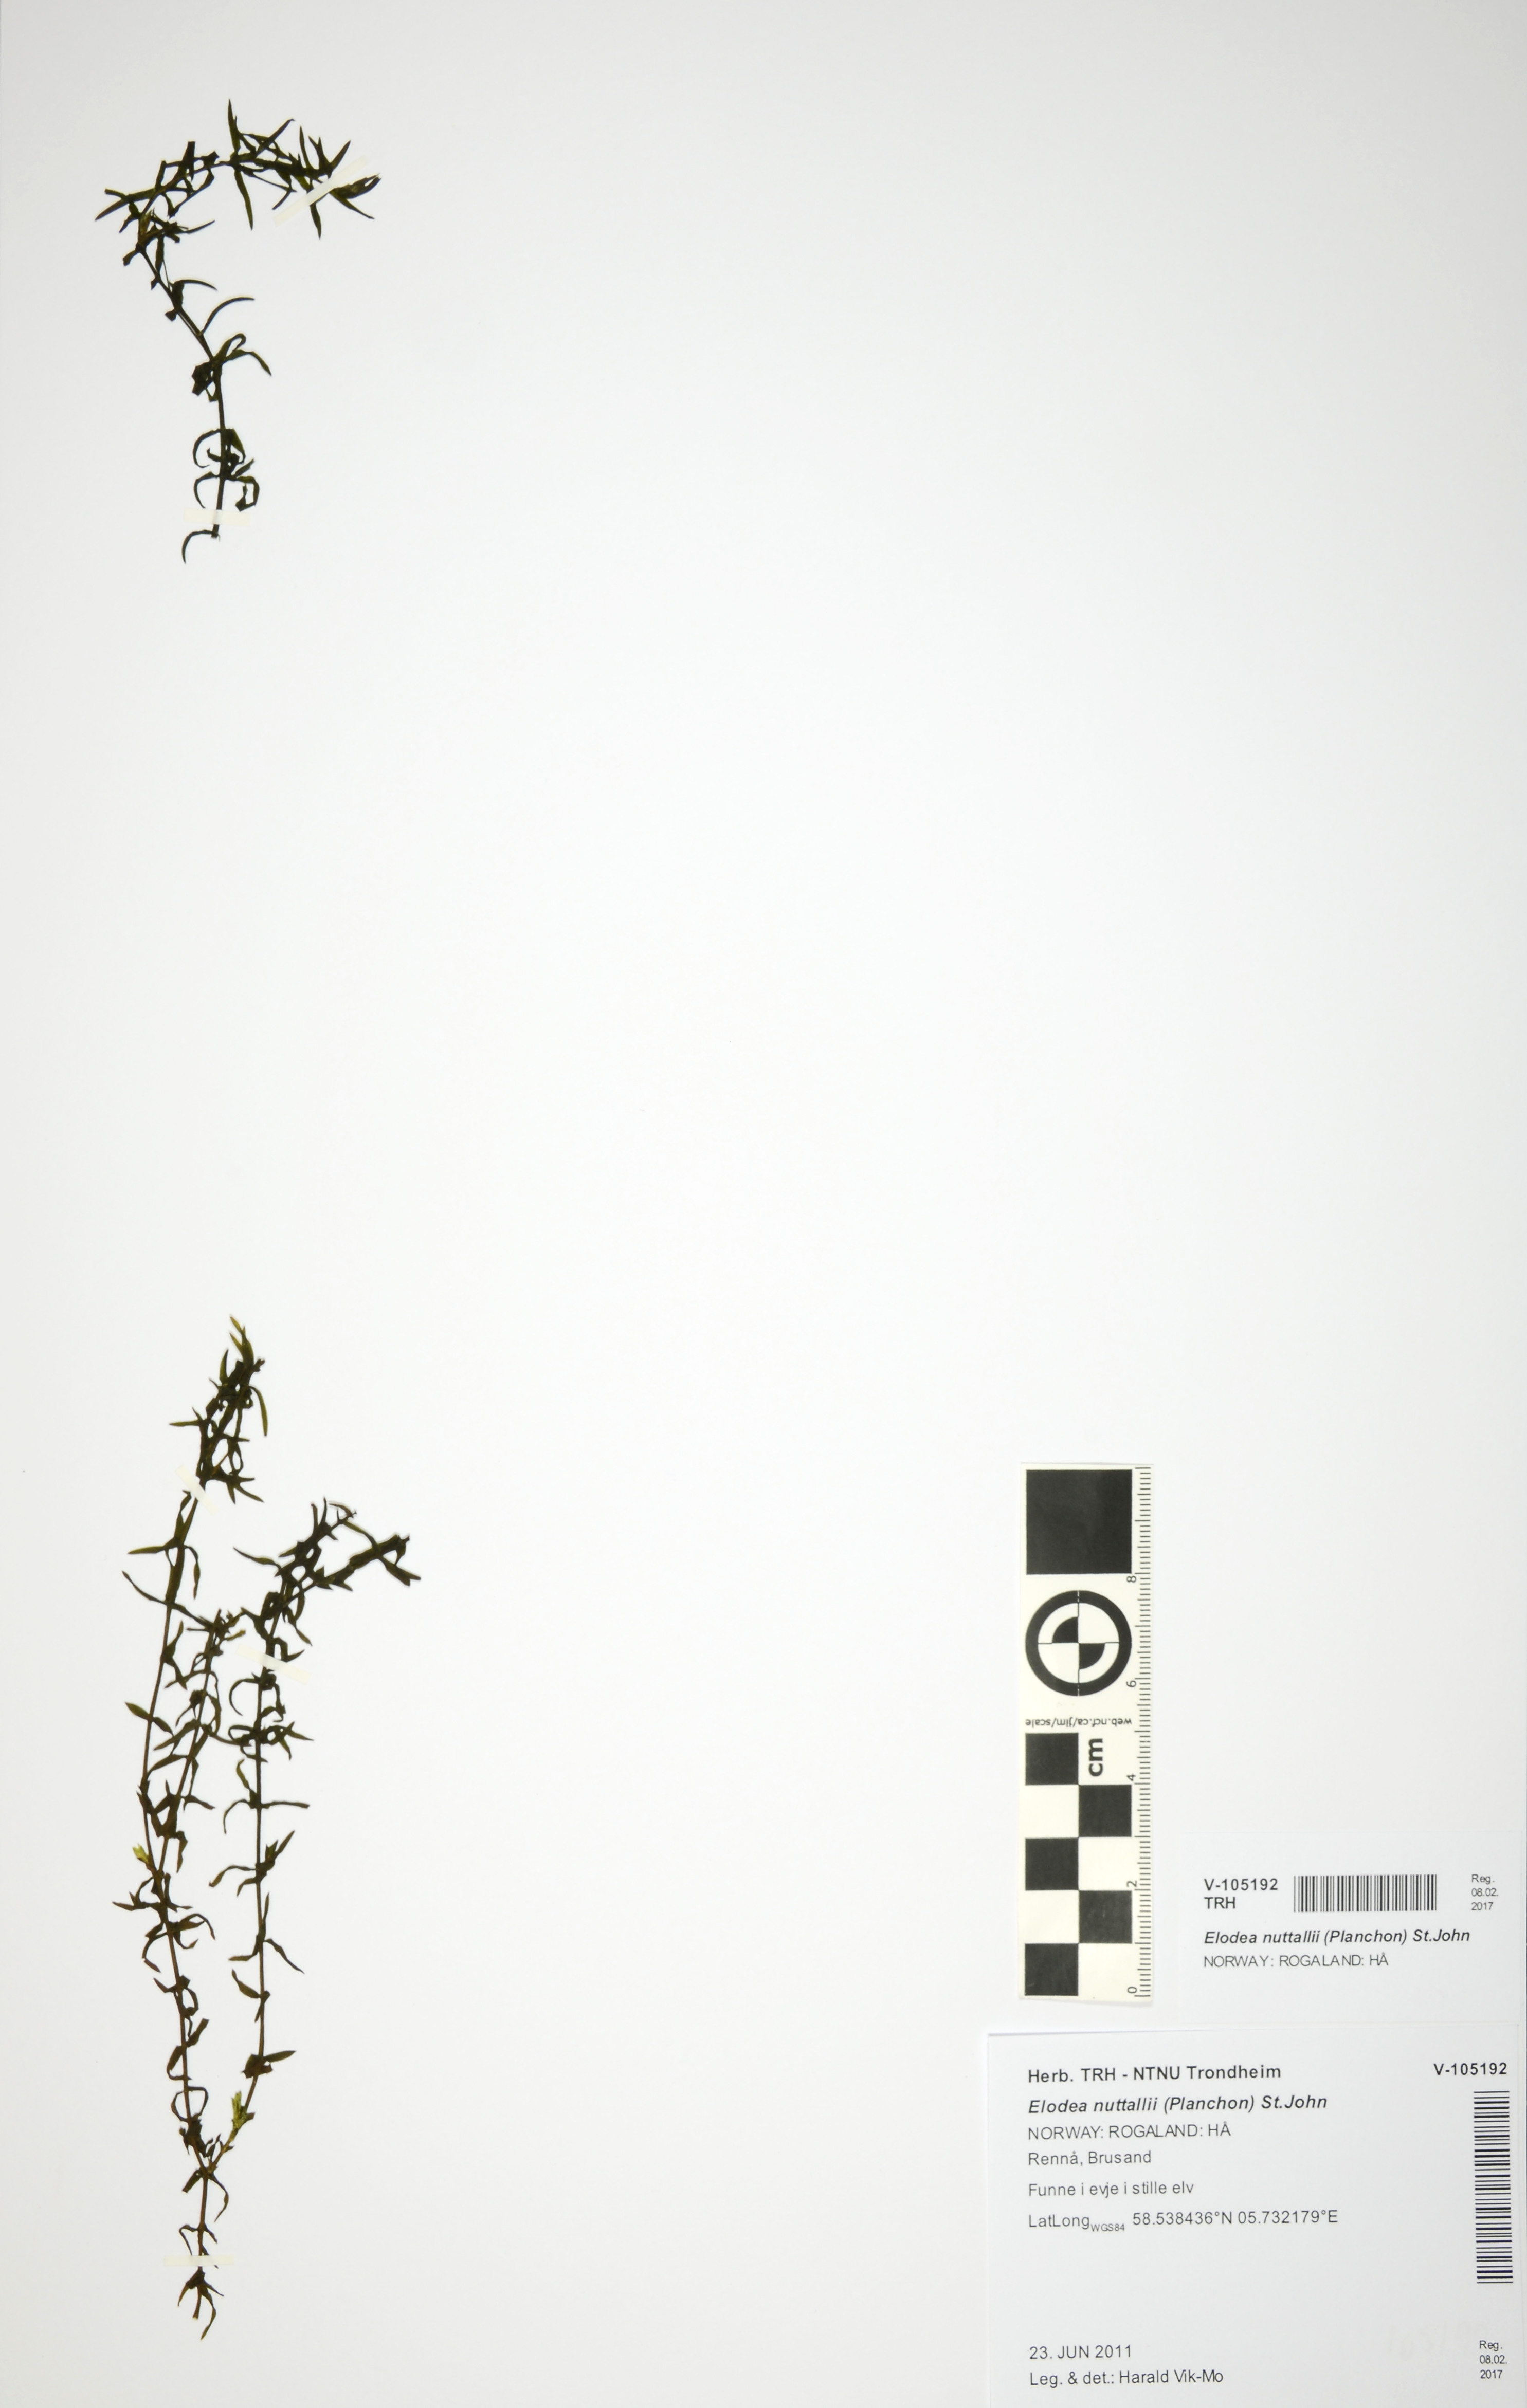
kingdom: Plantae
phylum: Tracheophyta
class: Liliopsida
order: Alismatales
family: Hydrocharitaceae
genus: Elodea
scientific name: Elodea nuttallii
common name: Nuttall's waterweed
